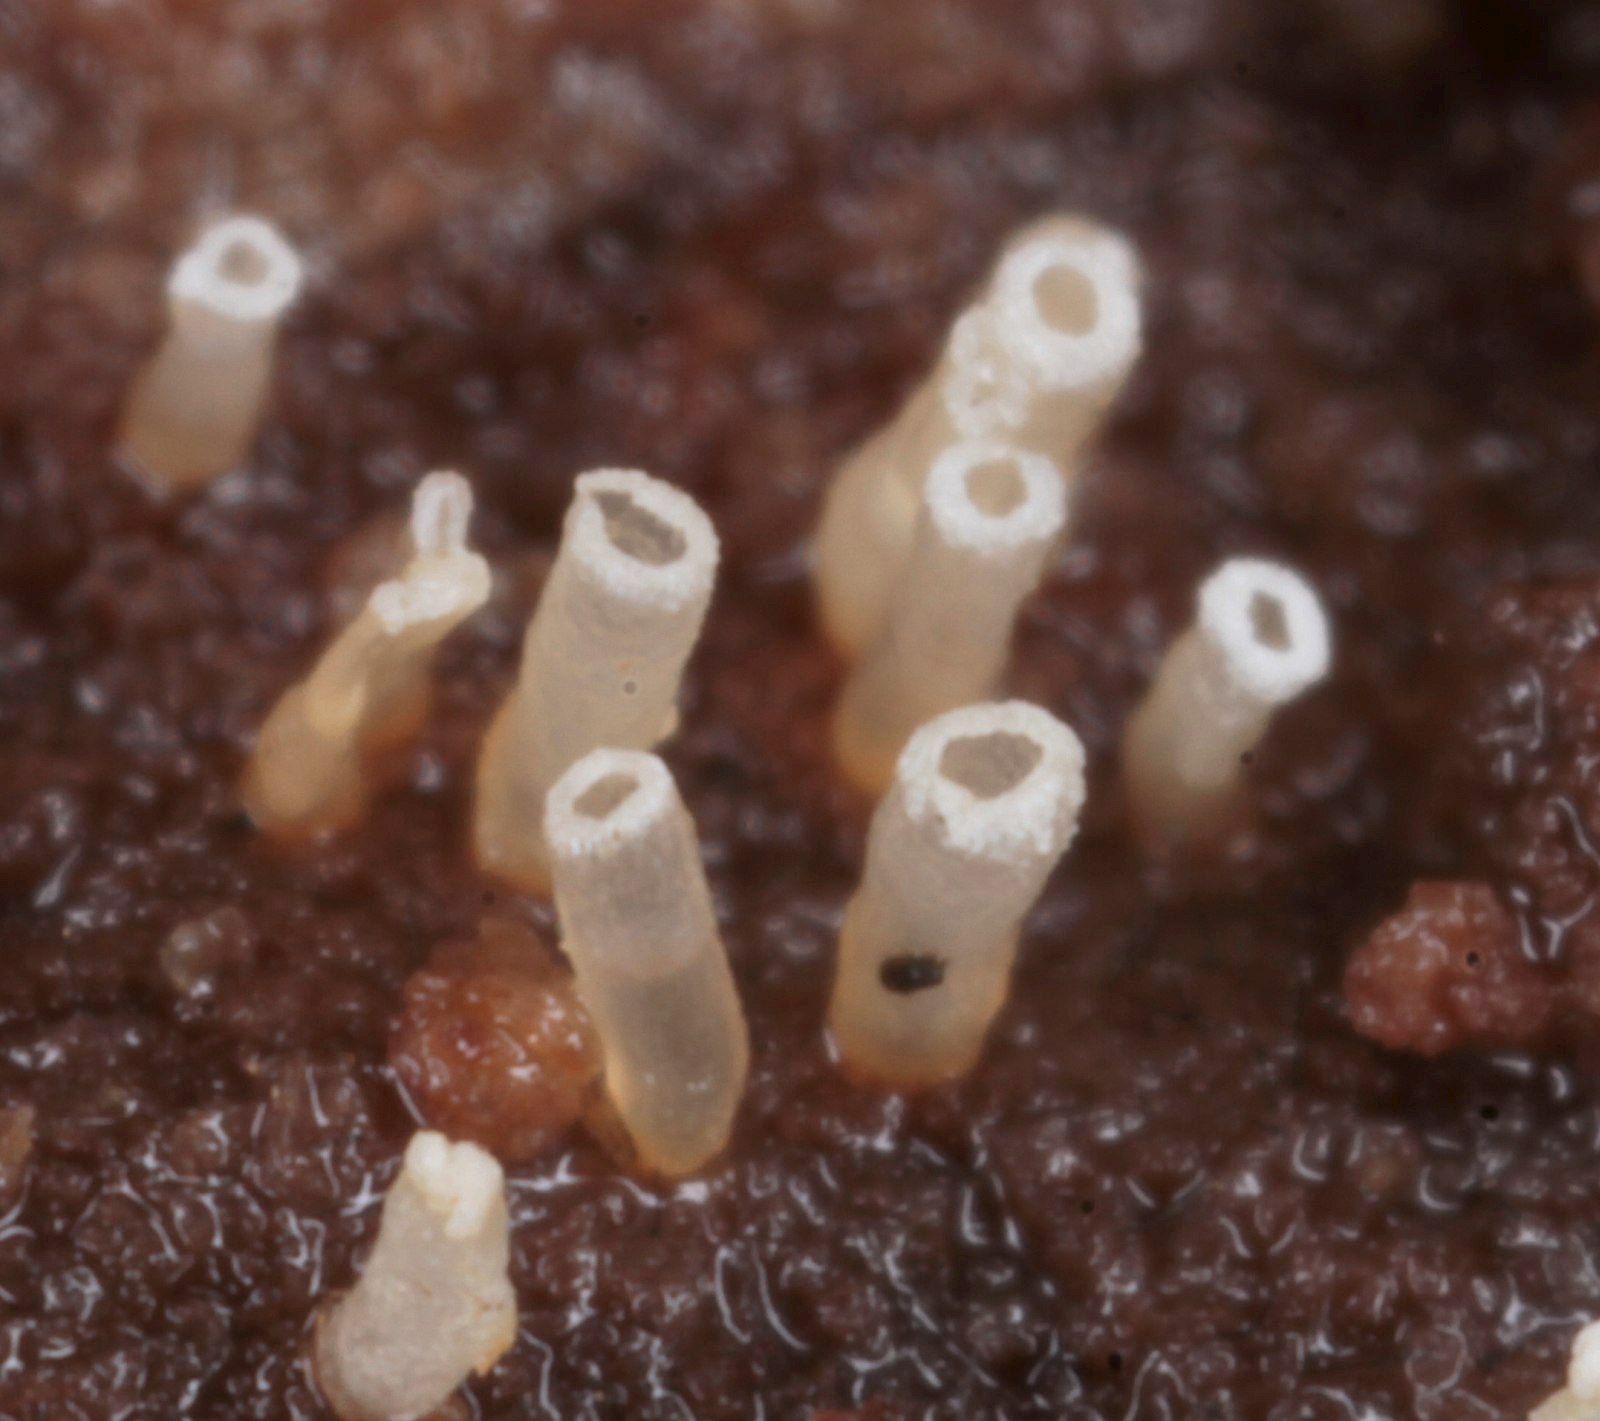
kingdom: Fungi
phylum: Basidiomycota
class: Agaricomycetes
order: Agaricales
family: Marasmiaceae
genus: Henningsomyces
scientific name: Henningsomyces candidus
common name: glat hængerør
